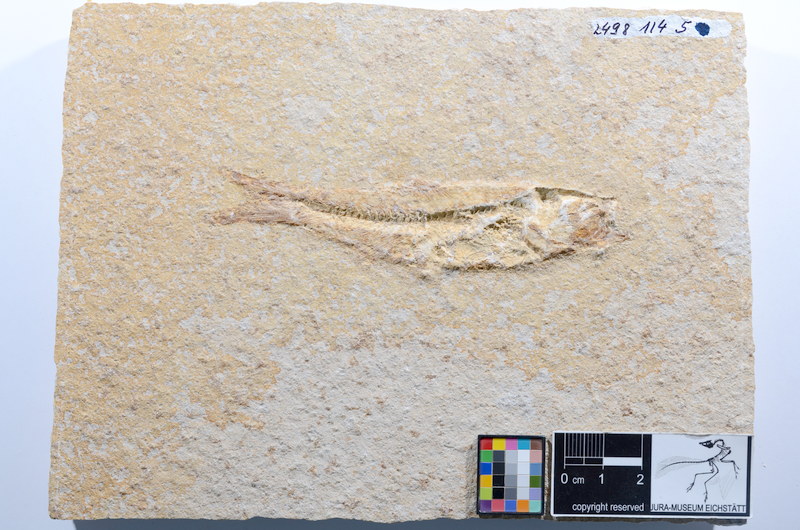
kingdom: Animalia
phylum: Chordata
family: Ascalaboidae
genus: Ascalabos
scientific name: Ascalabos voithii
